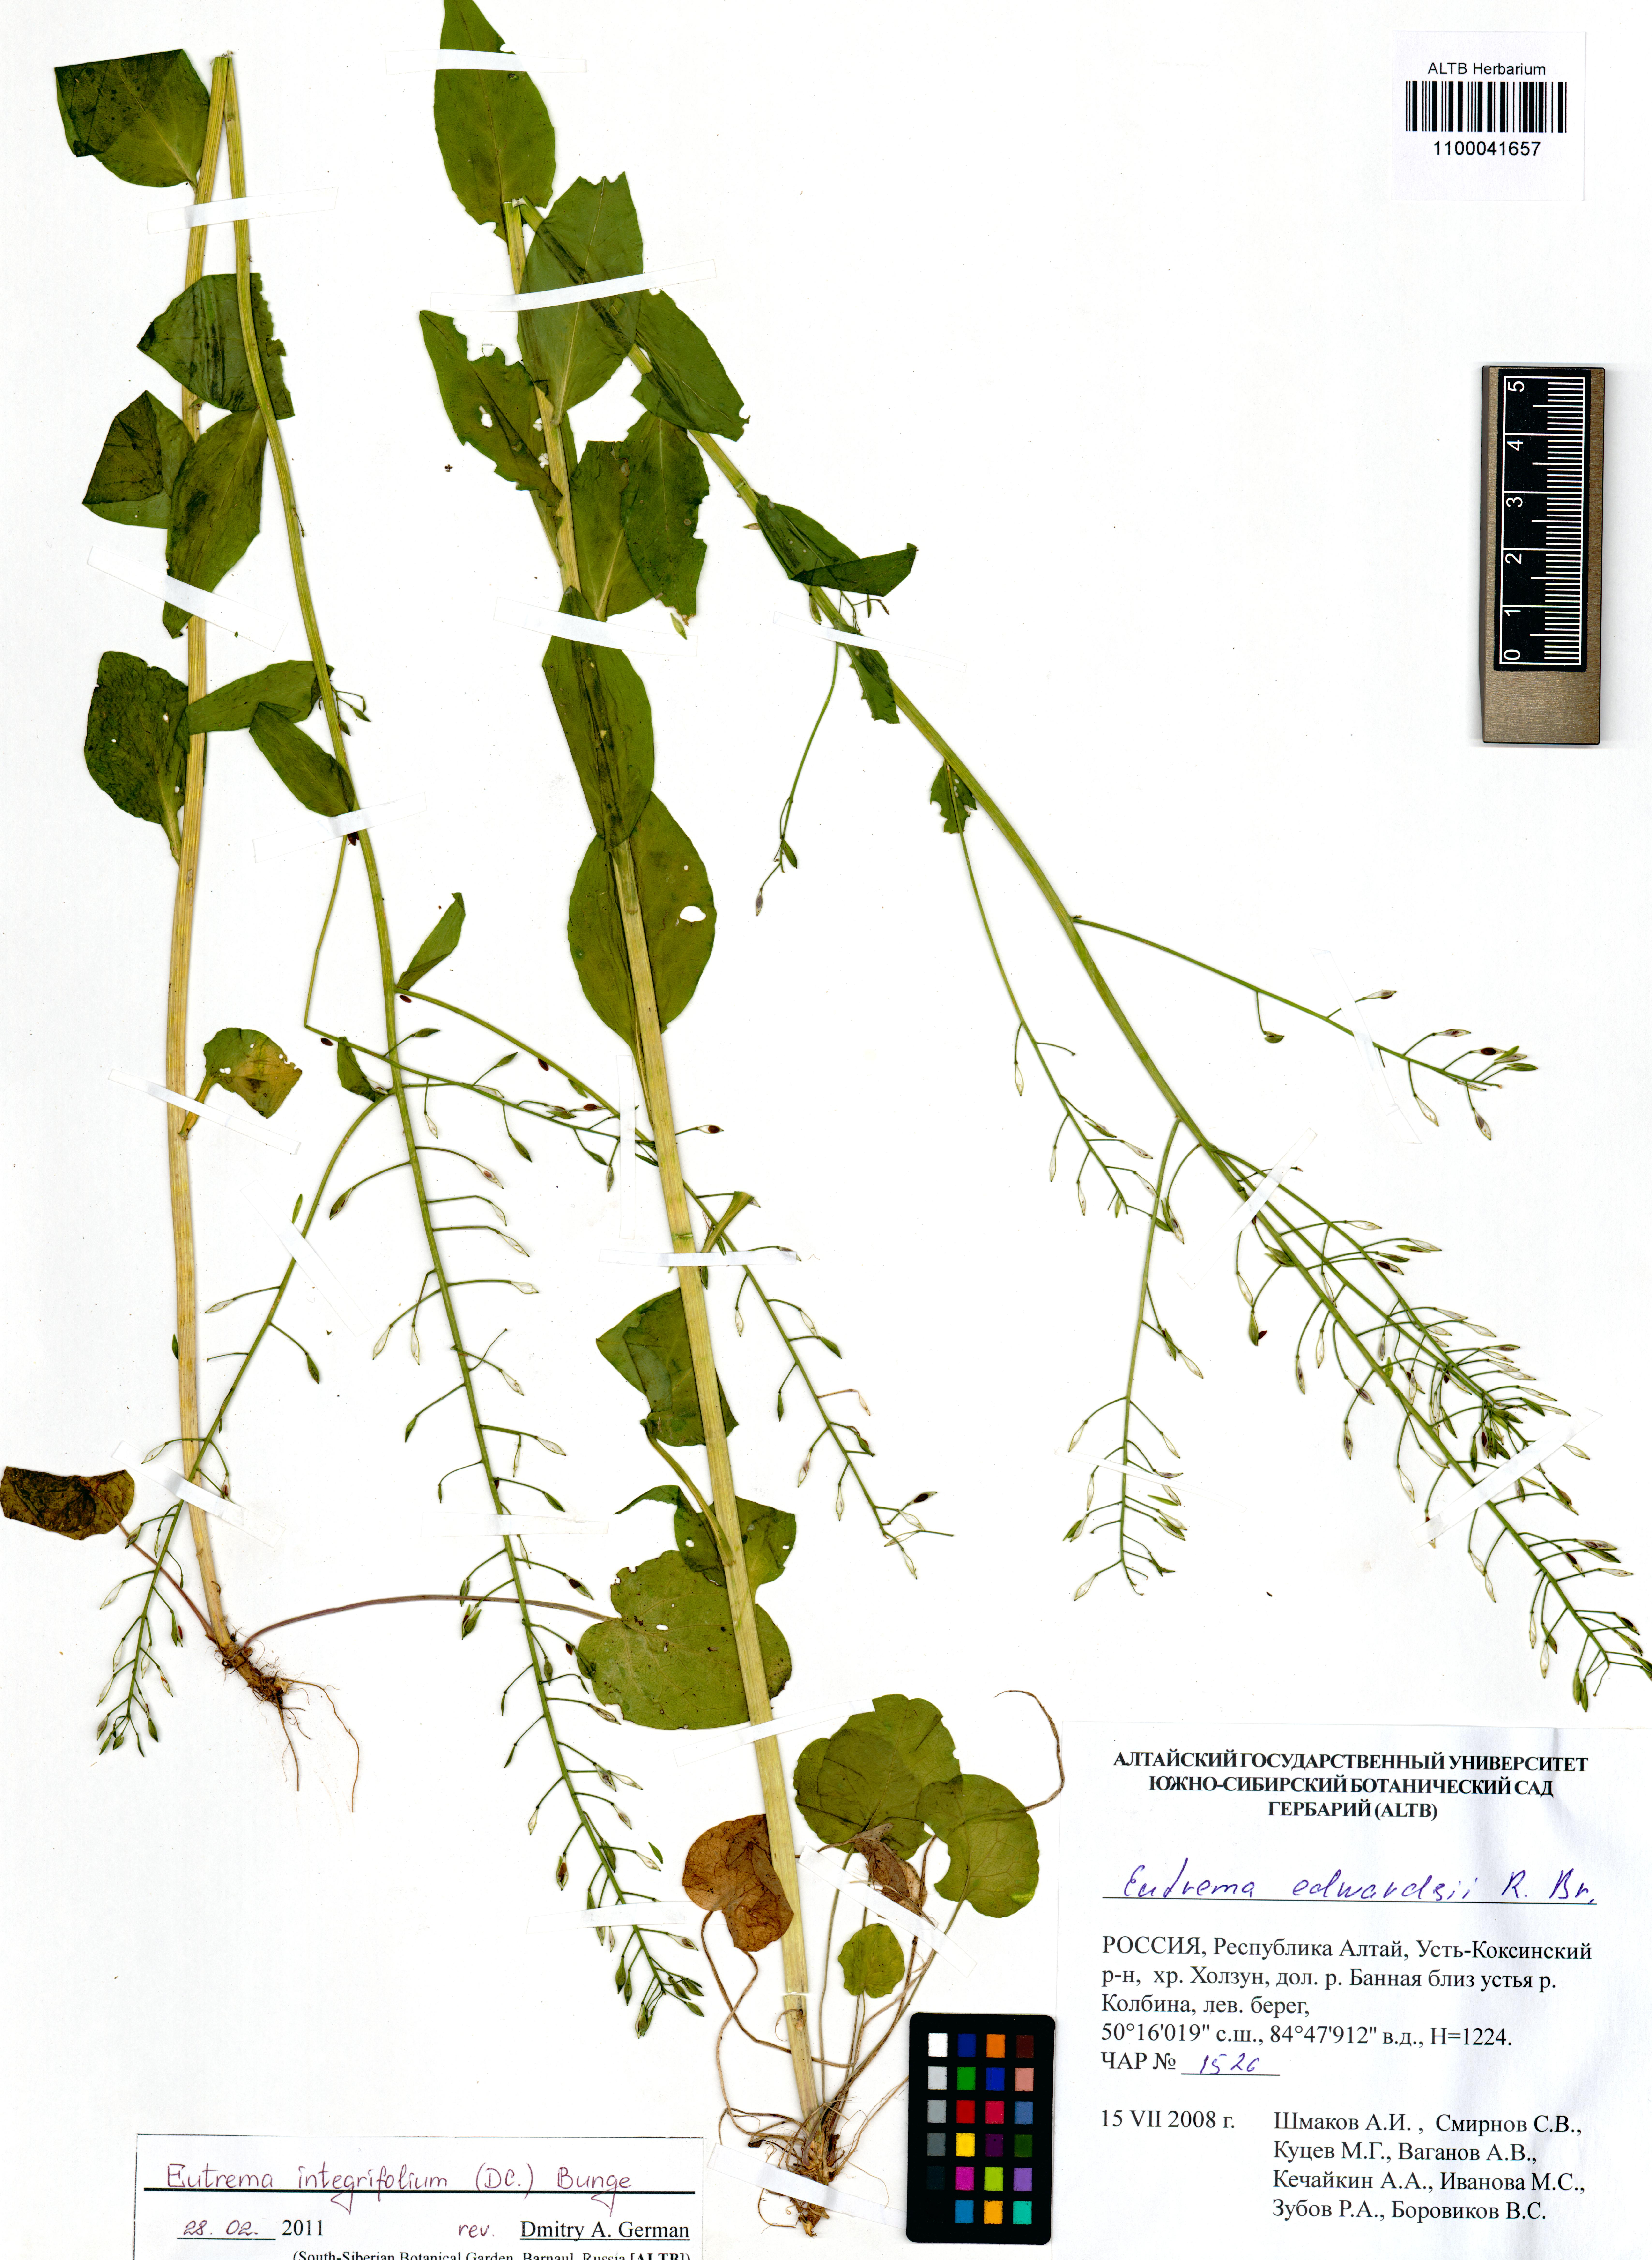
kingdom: Plantae
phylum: Tracheophyta
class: Magnoliopsida
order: Brassicales
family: Brassicaceae
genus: Eutrema
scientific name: Eutrema integrifolium
